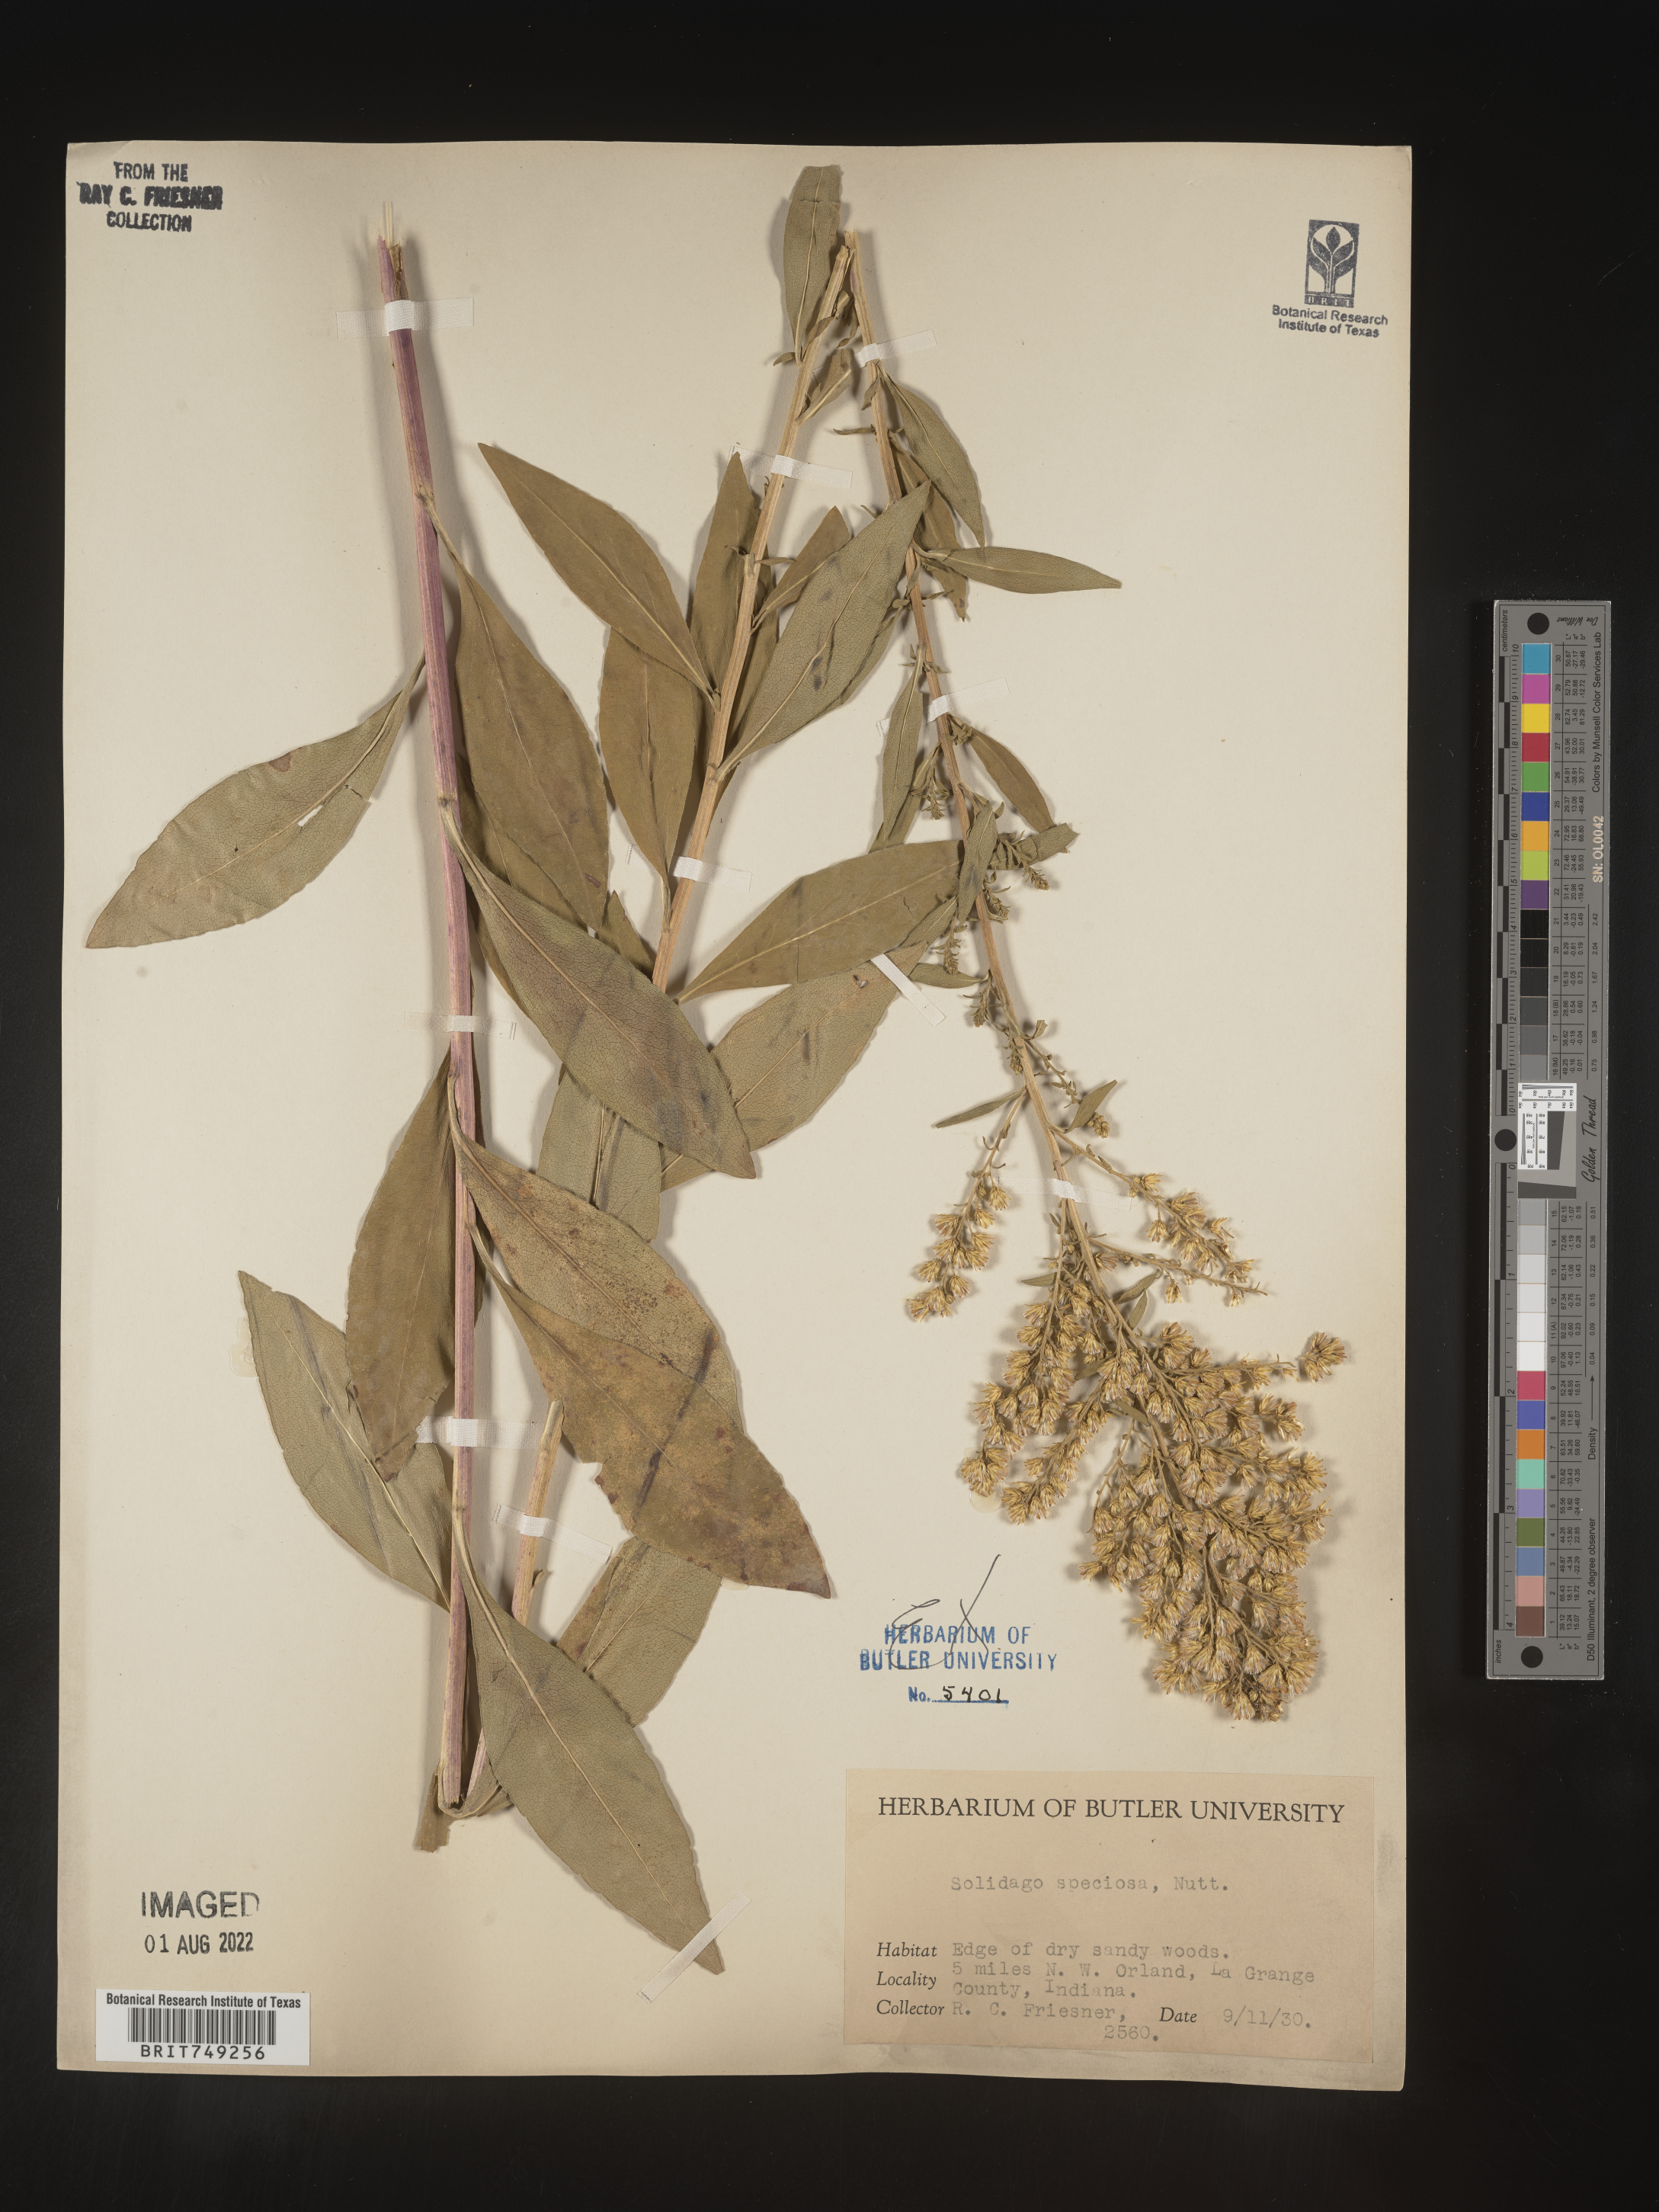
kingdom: Plantae
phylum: Tracheophyta
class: Magnoliopsida
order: Asterales
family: Asteraceae
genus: Solidago
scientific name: Solidago speciosa
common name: Showy goldenrod
